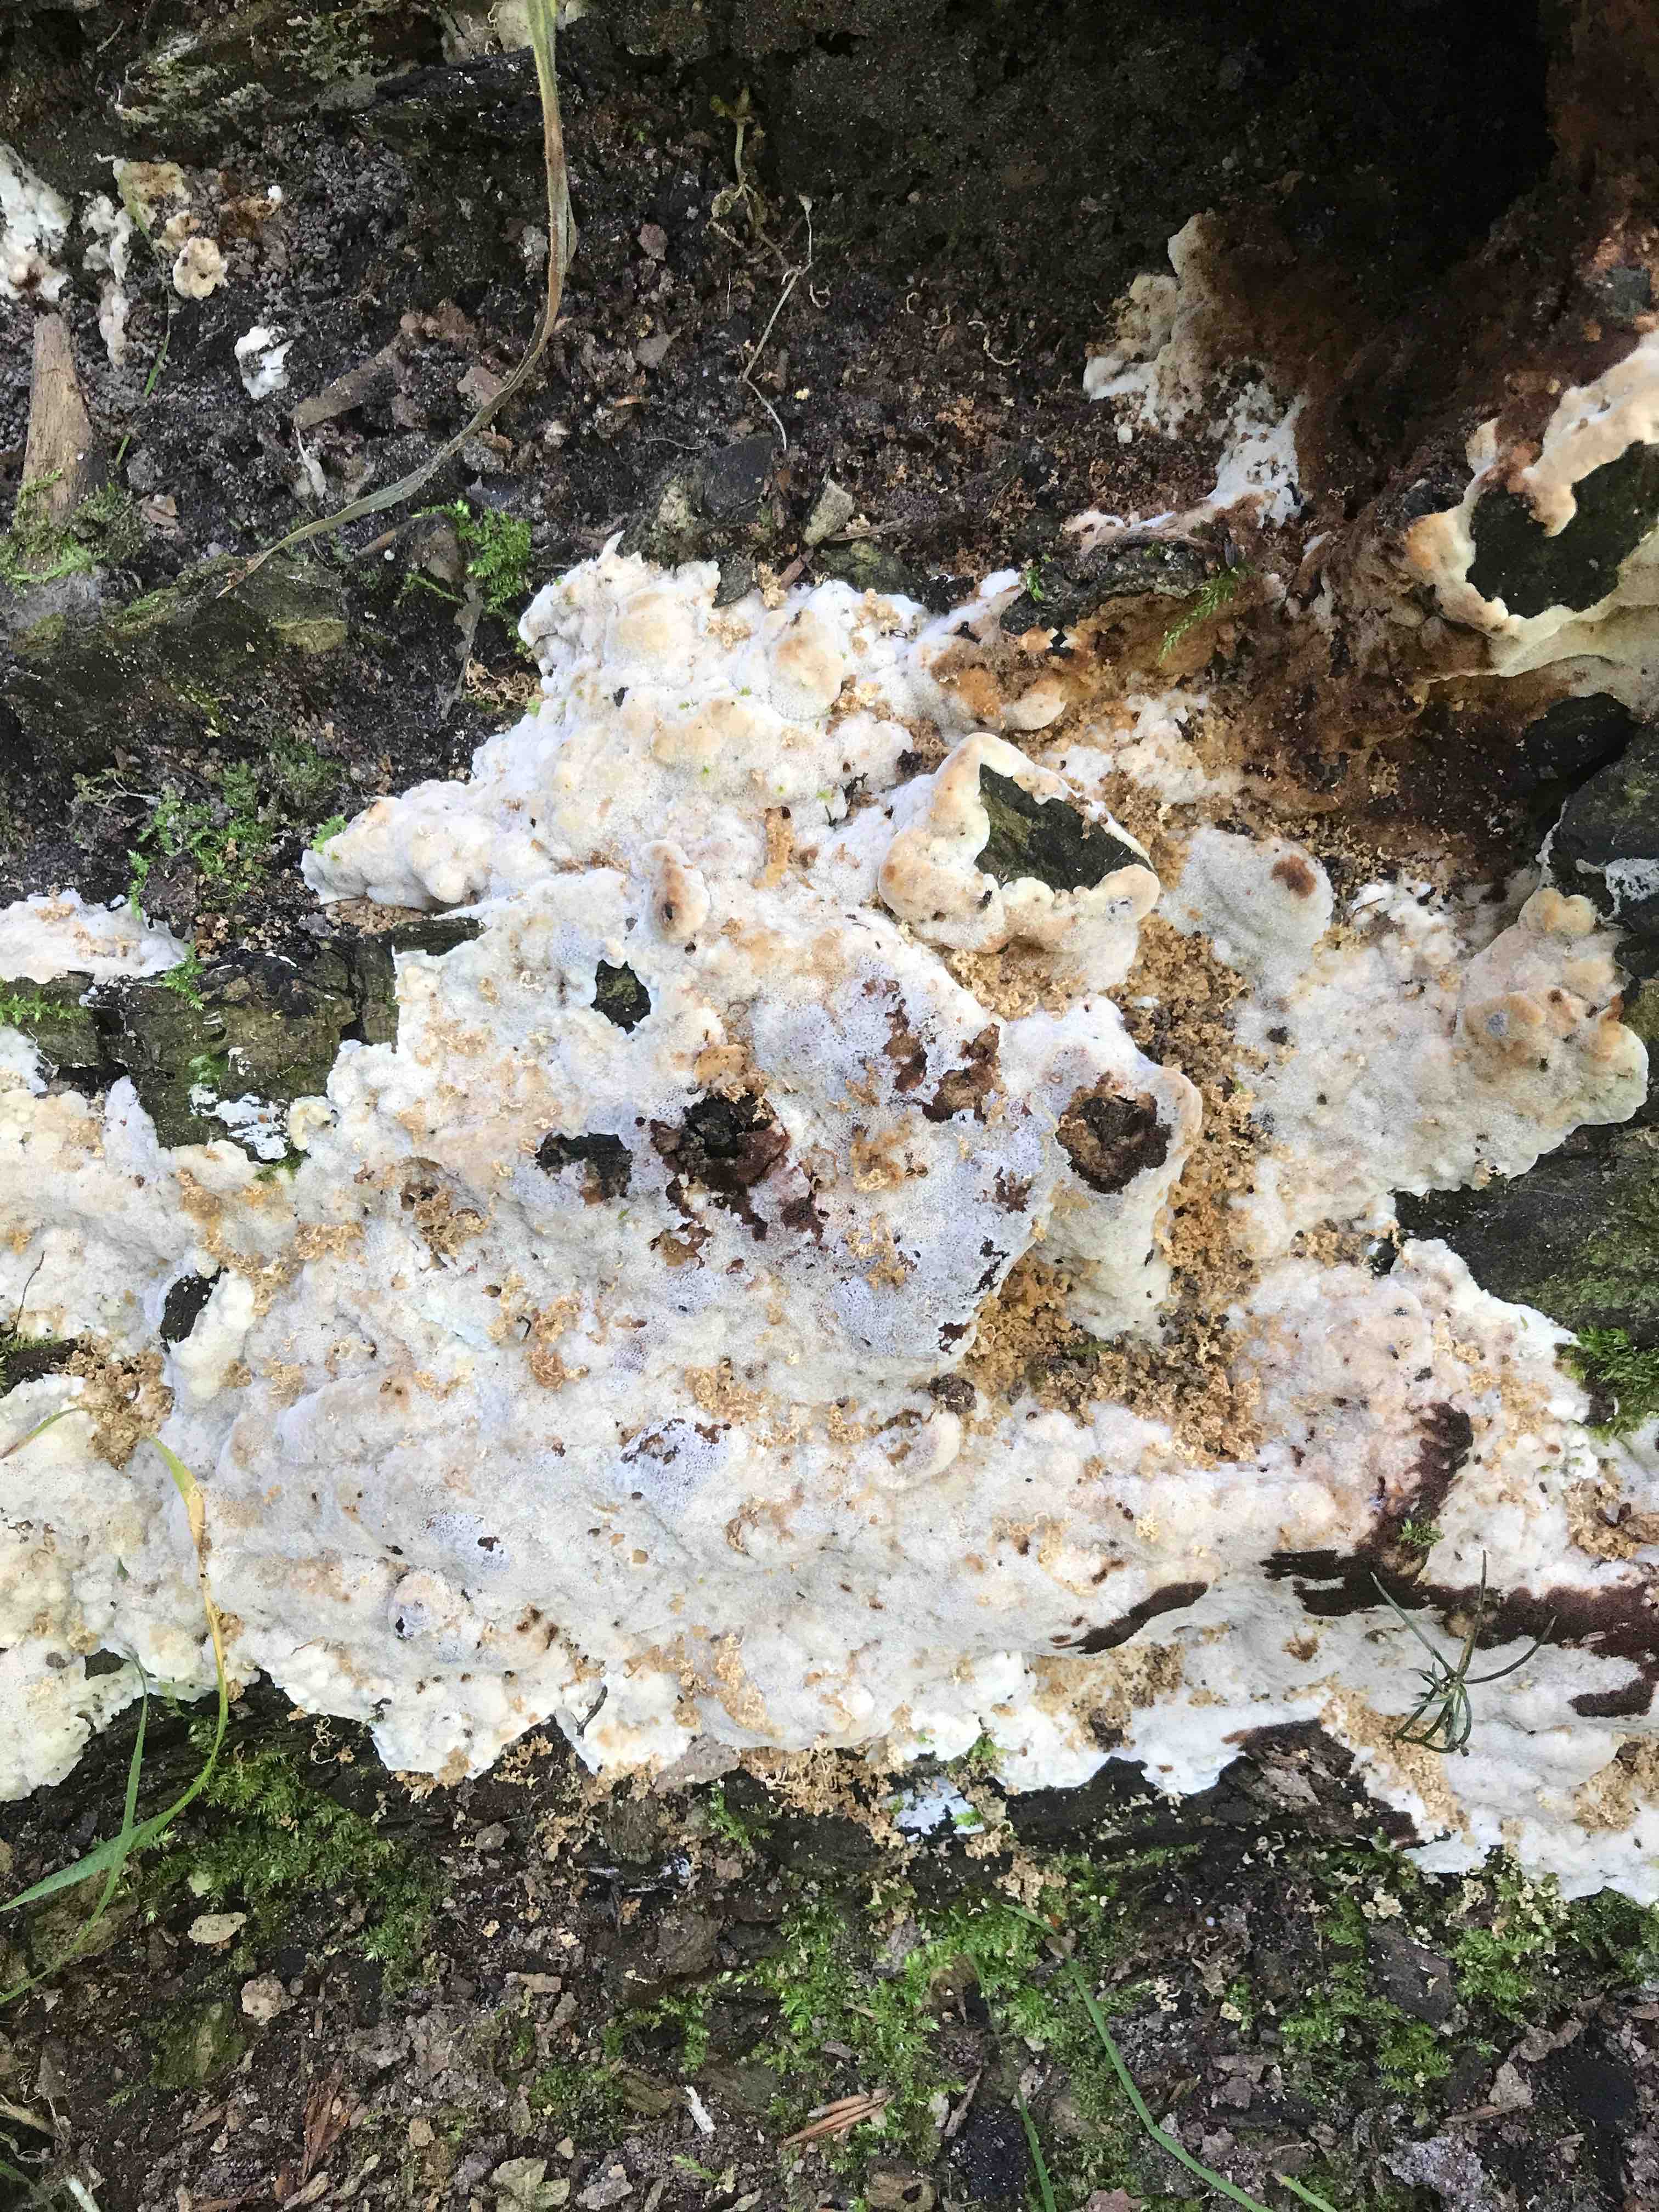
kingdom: Fungi
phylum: Basidiomycota
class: Agaricomycetes
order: Polyporales
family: Meruliaceae
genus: Physisporinus
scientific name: Physisporinus vitreus
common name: mastesvamp
